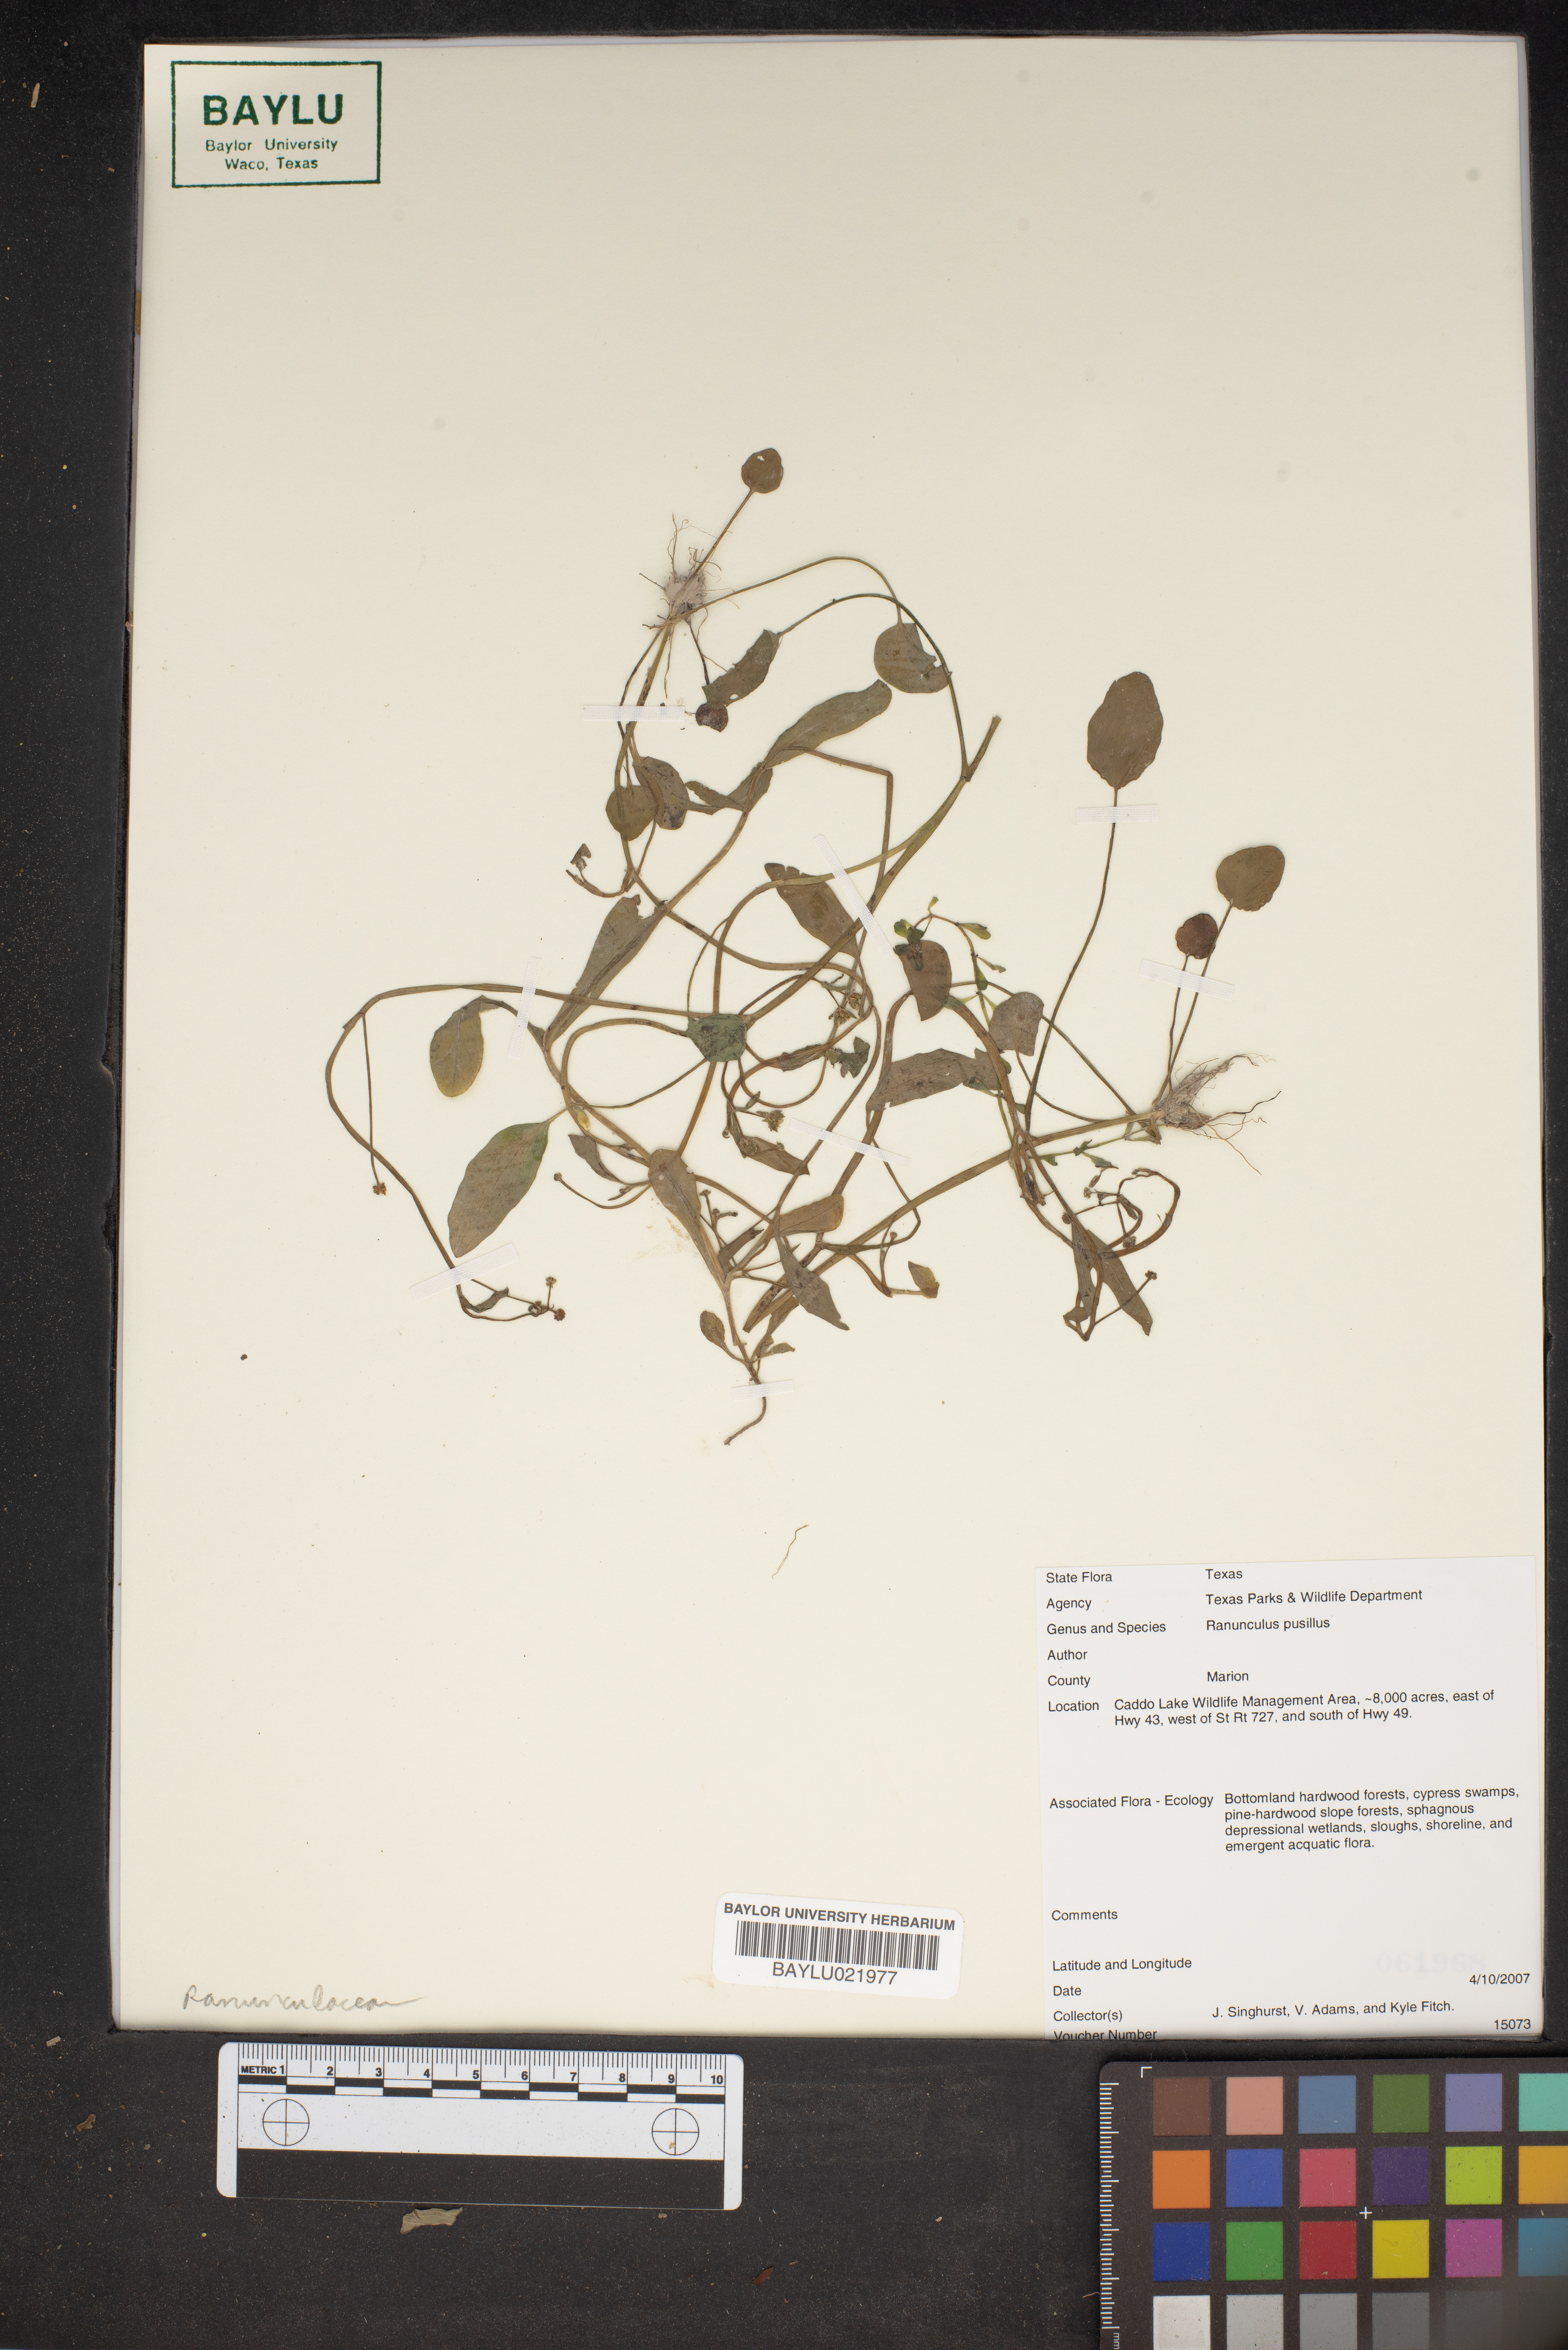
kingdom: Plantae
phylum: Tracheophyta
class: Magnoliopsida
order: Ranunculales
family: Ranunculaceae
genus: Ranunculus
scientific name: Ranunculus pusillus
